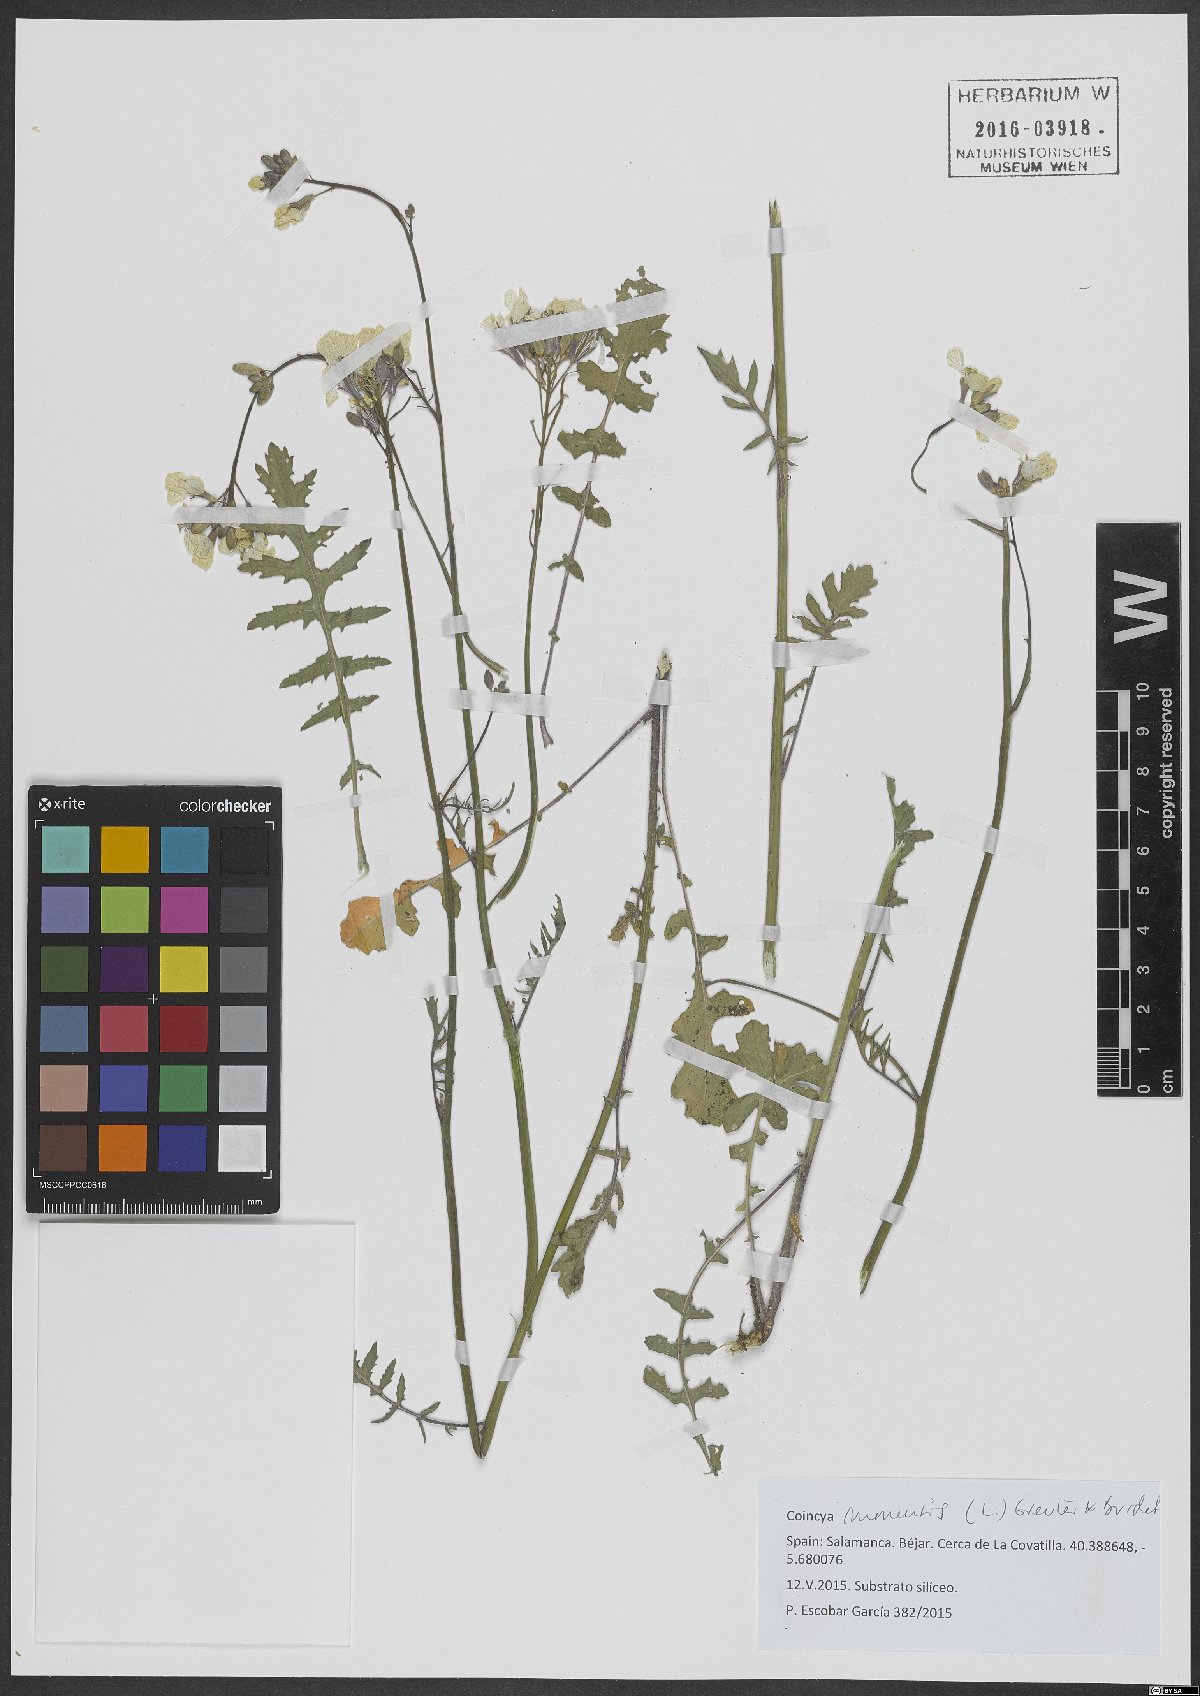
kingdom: Plantae
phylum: Tracheophyta
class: Magnoliopsida
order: Brassicales
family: Brassicaceae
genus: Coincya
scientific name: Coincya monensis
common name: Star-mustard
